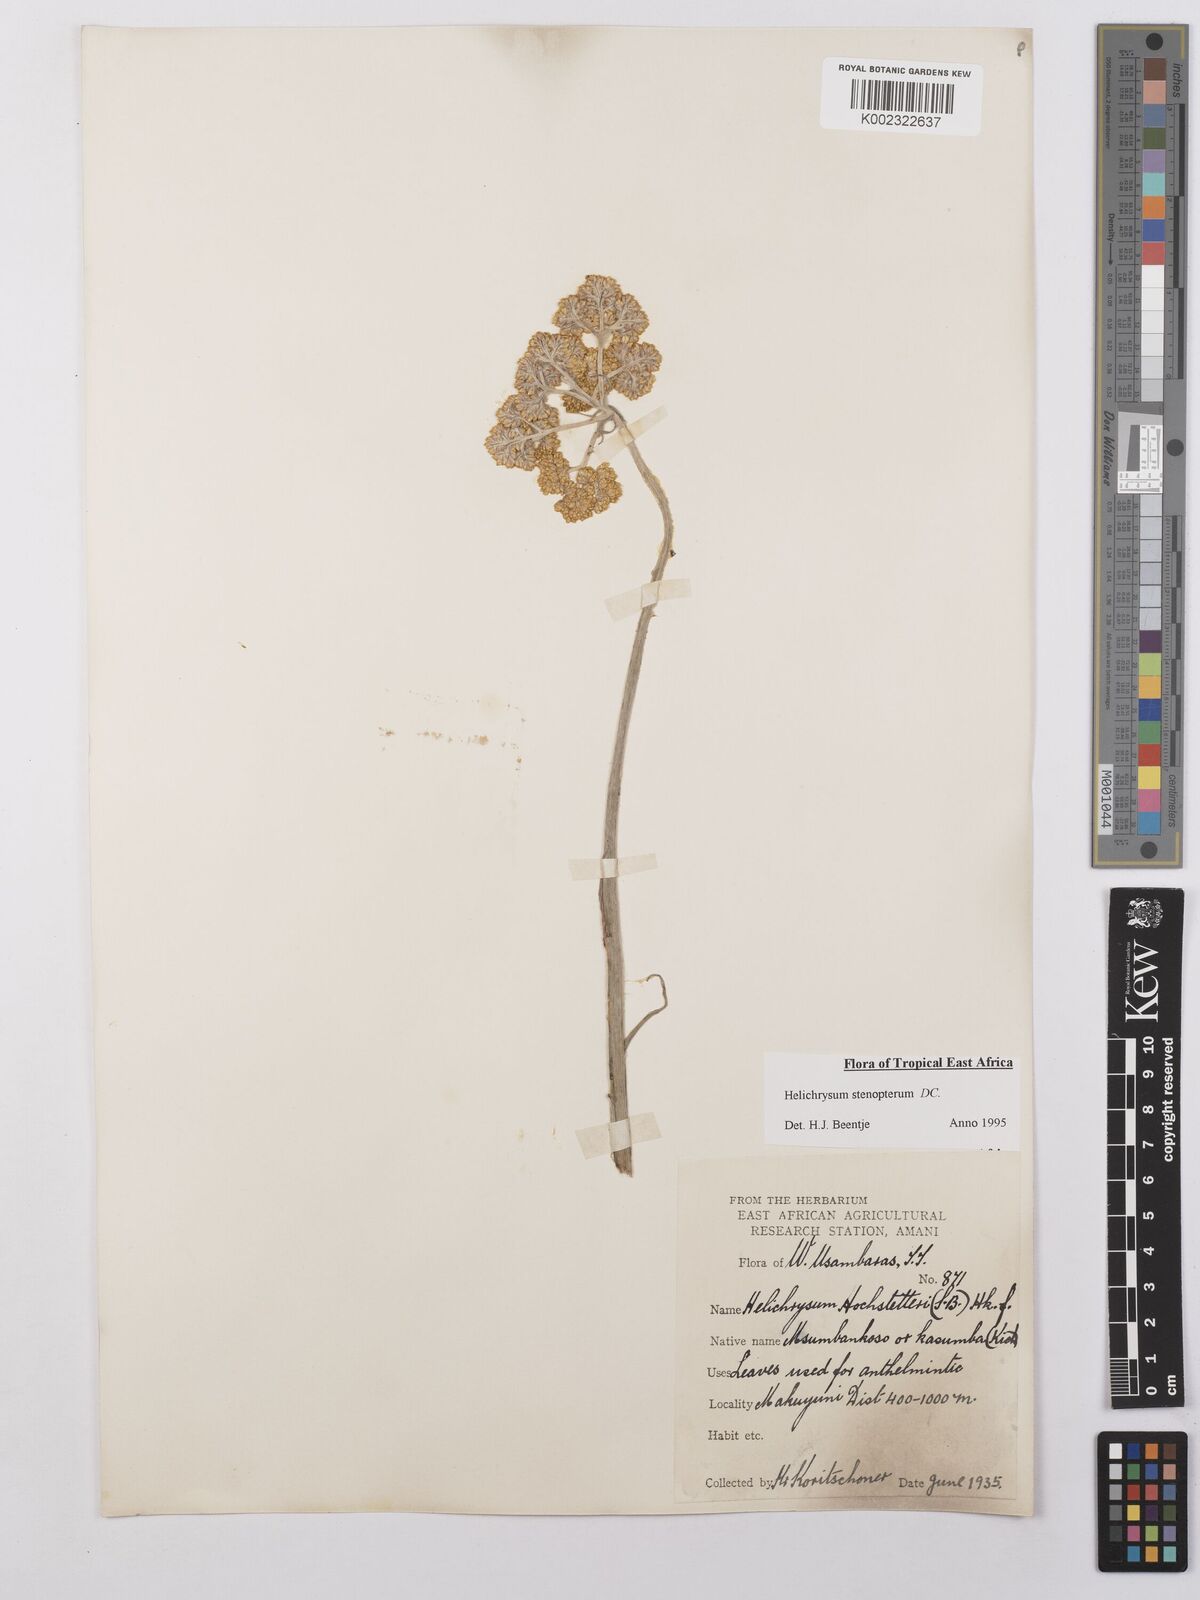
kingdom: Plantae
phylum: Tracheophyta
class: Magnoliopsida
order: Asterales
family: Asteraceae
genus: Helichrysum
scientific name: Helichrysum stenopterum
